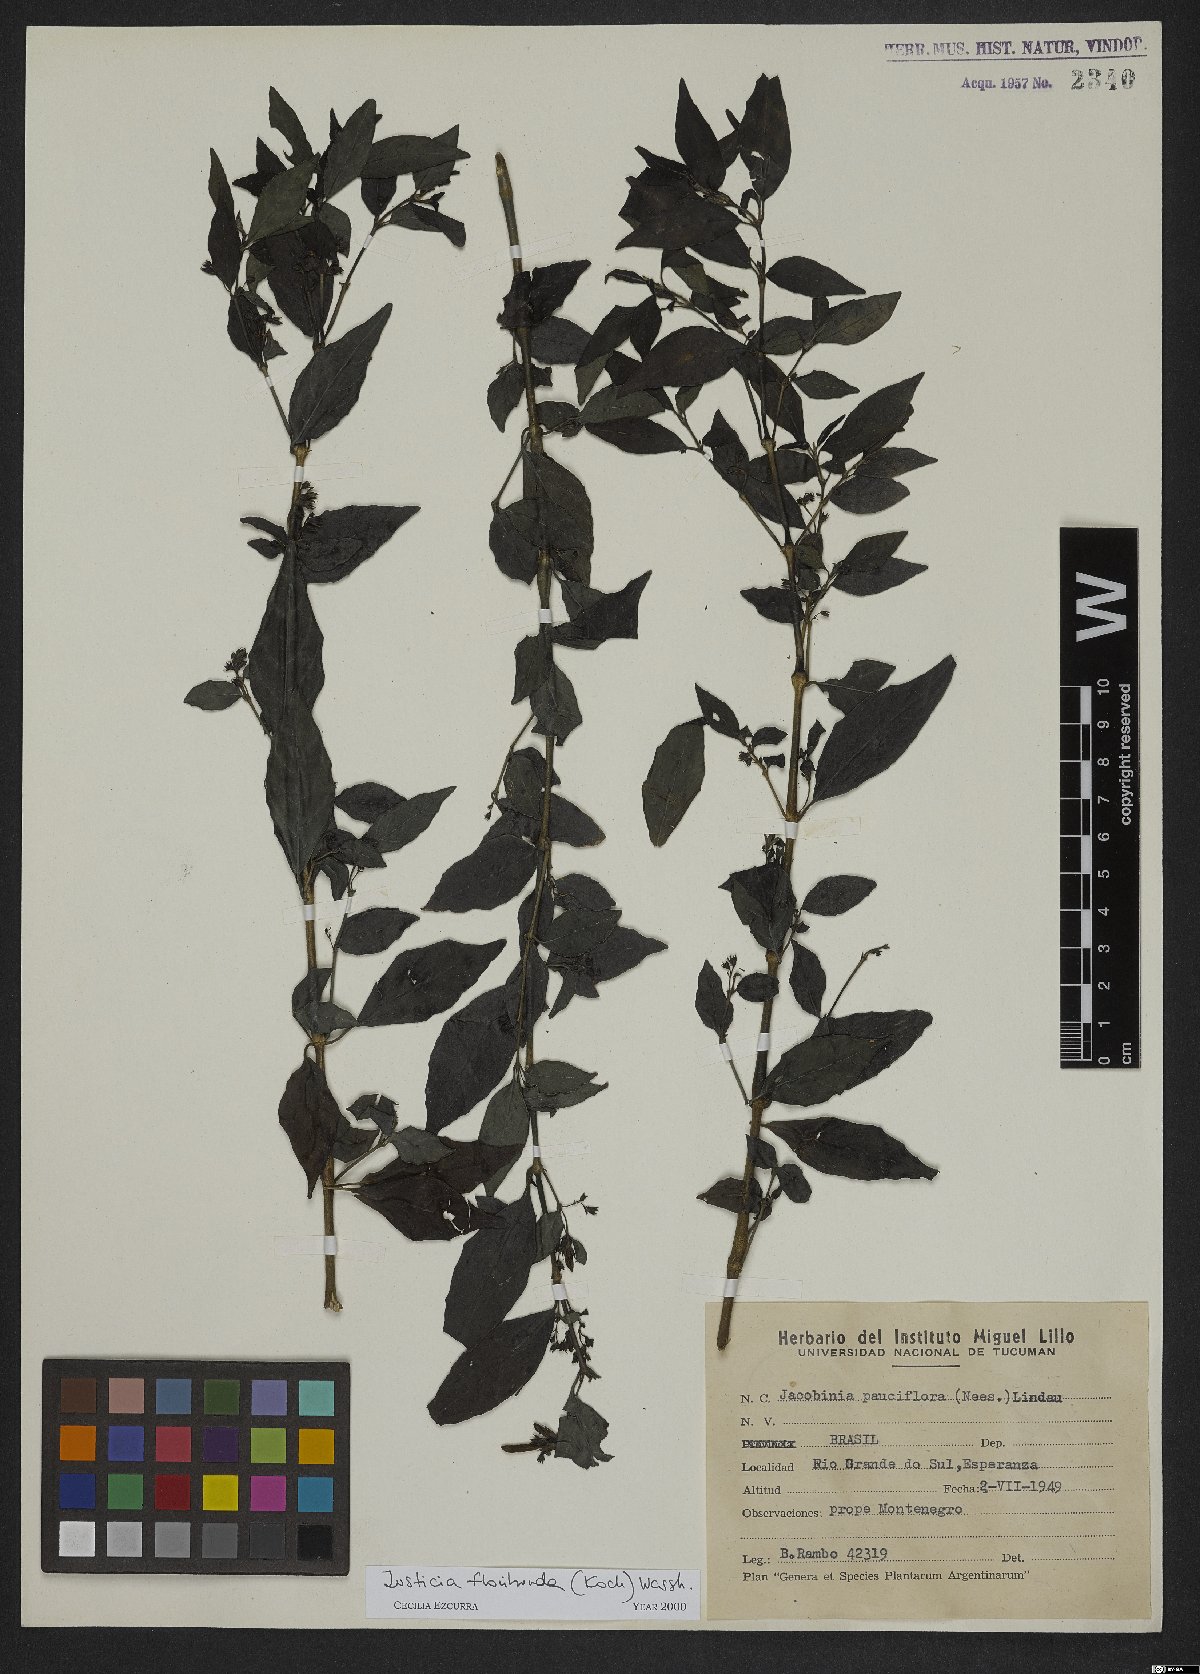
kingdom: Plantae
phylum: Tracheophyta
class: Magnoliopsida
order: Lamiales
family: Acanthaceae
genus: Justicia
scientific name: Justicia floribunda
